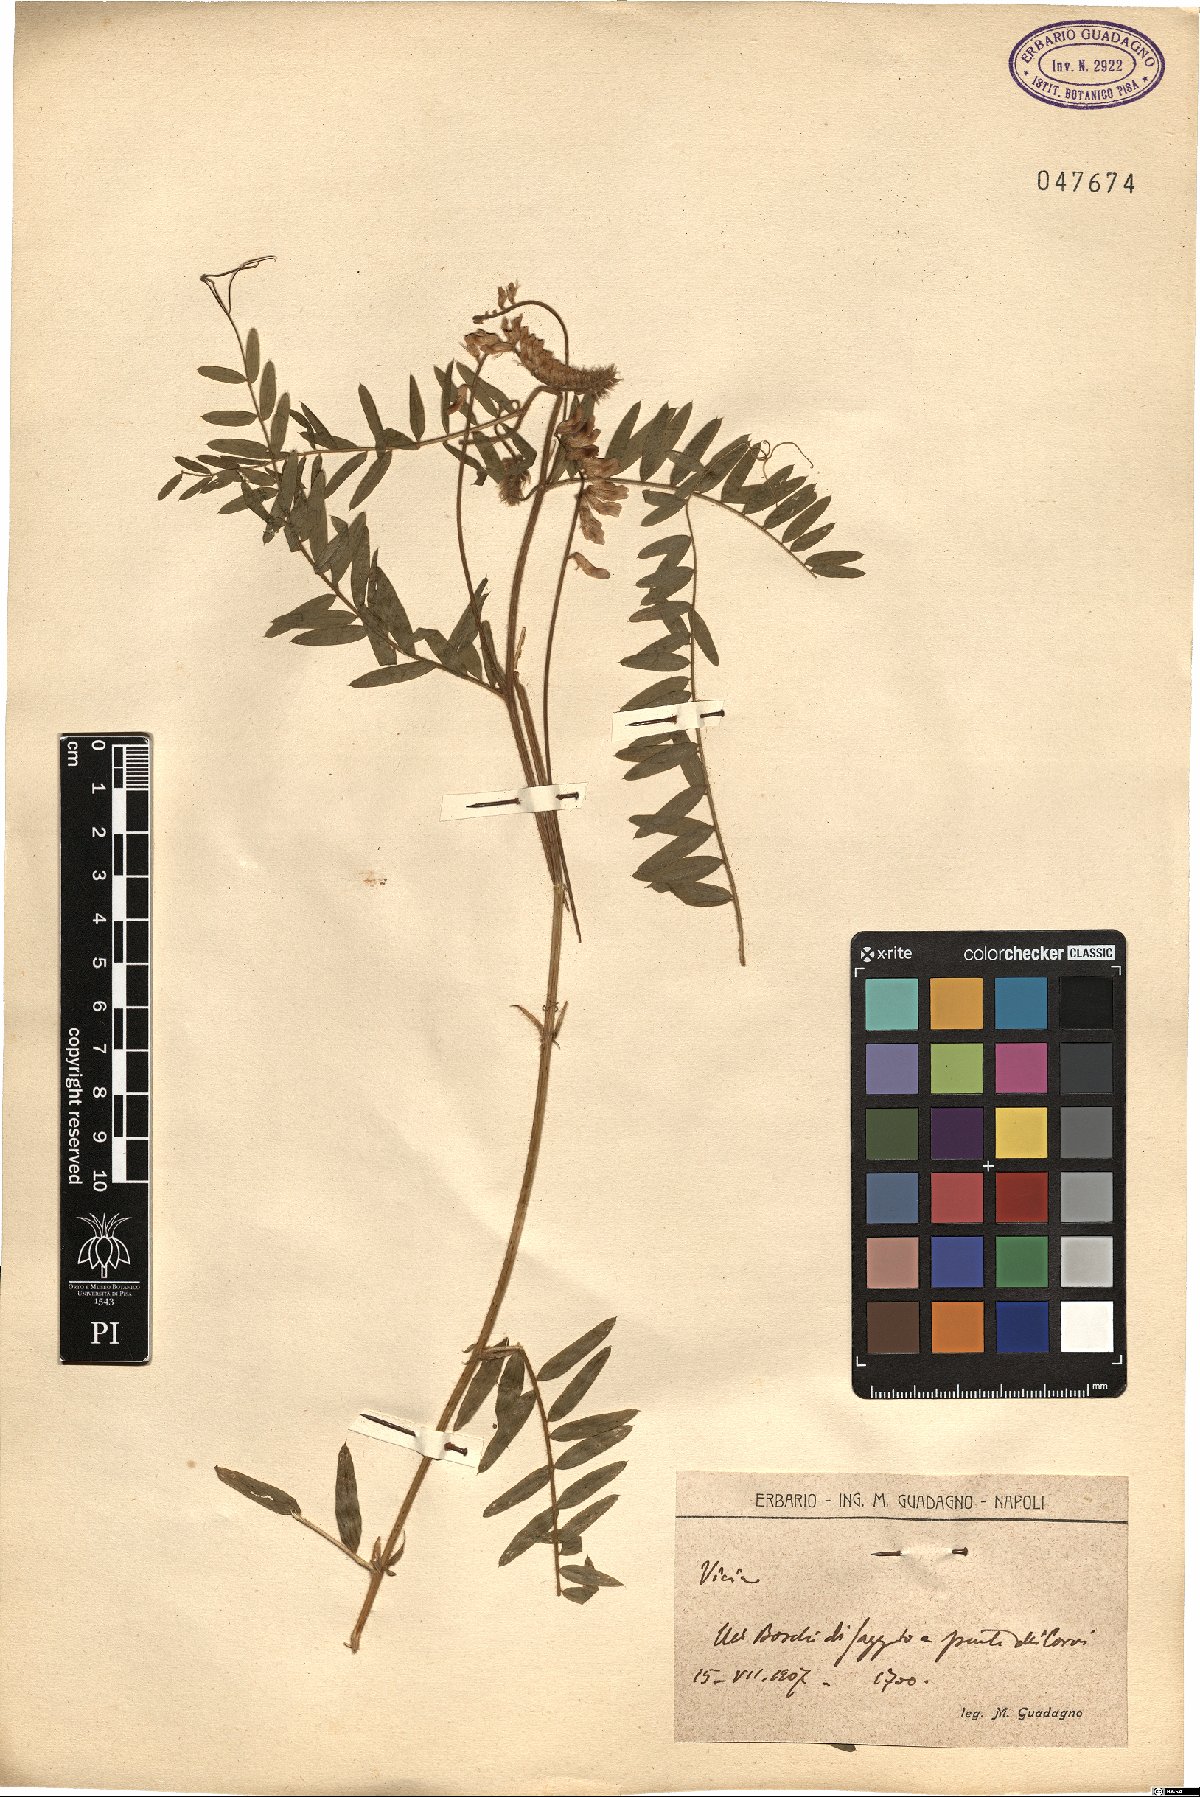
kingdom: Plantae
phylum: Tracheophyta
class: Magnoliopsida
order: Fabales
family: Fabaceae
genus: Vicia
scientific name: Vicia
